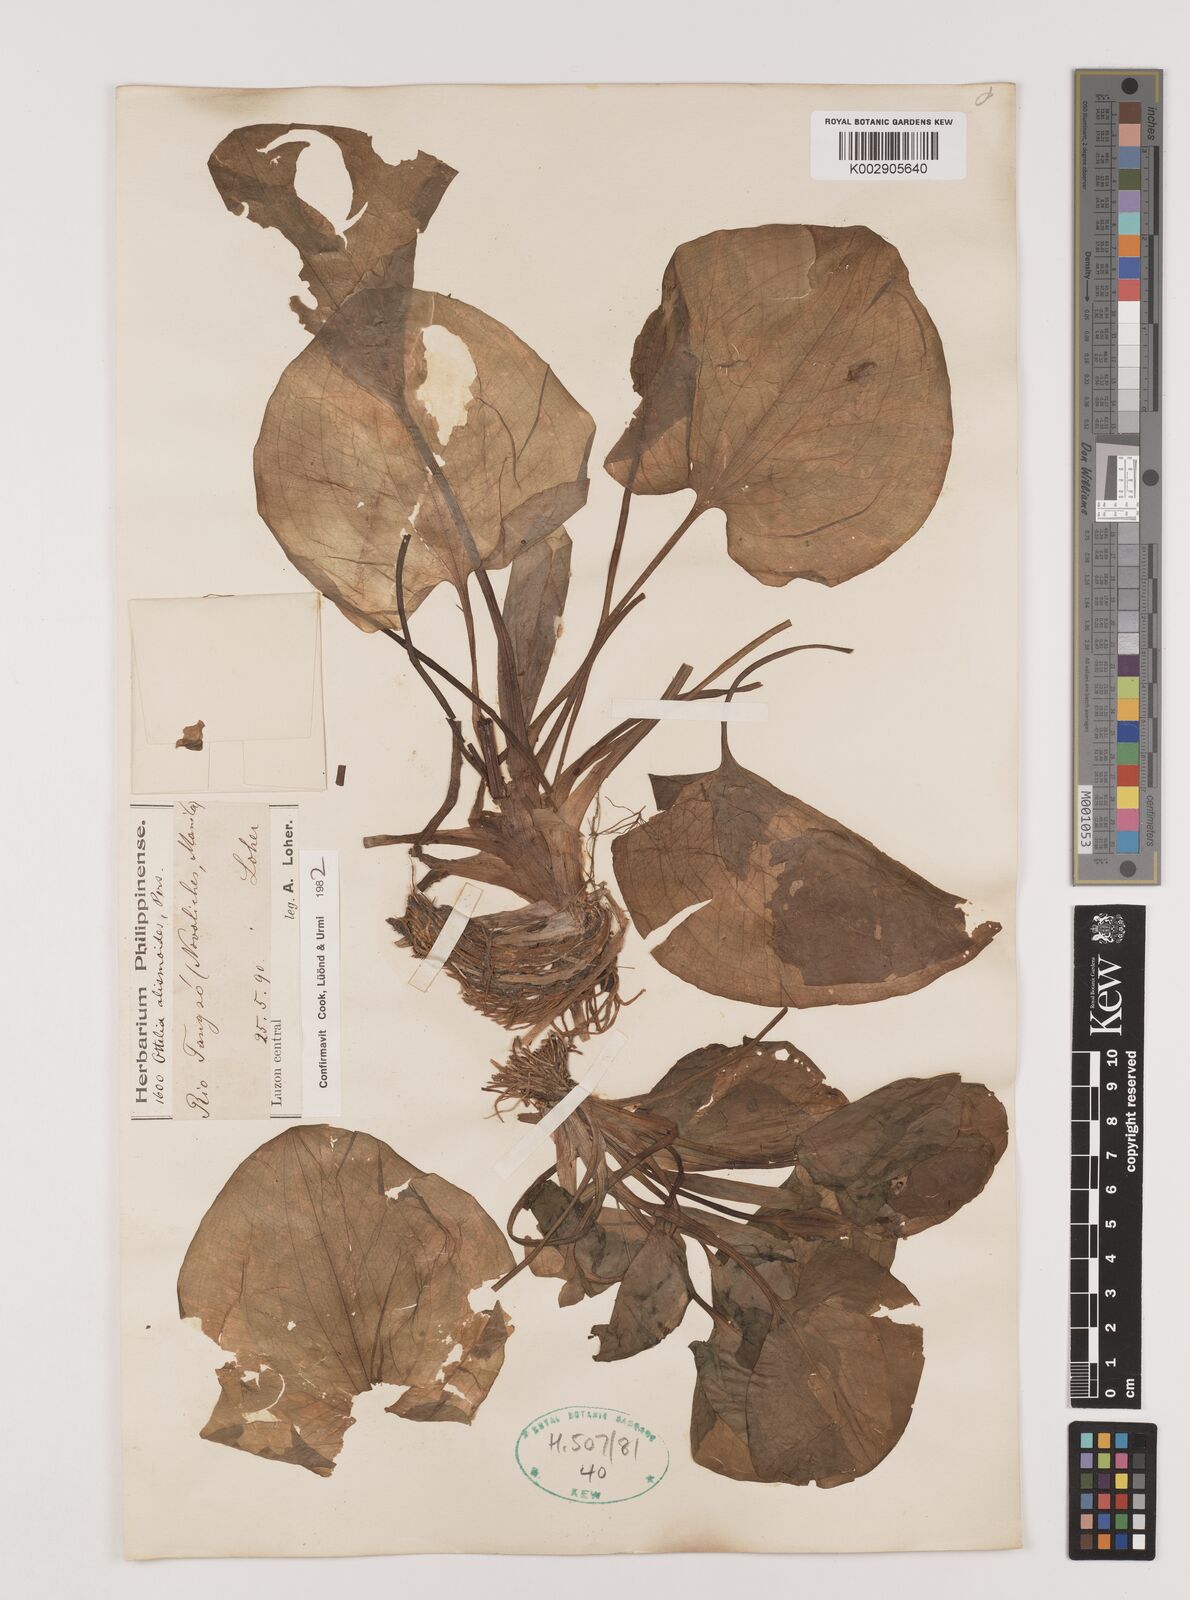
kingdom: Plantae
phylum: Tracheophyta
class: Liliopsida
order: Alismatales
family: Hydrocharitaceae
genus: Ottelia
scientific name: Ottelia alismoides
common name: Duck-lettuce
